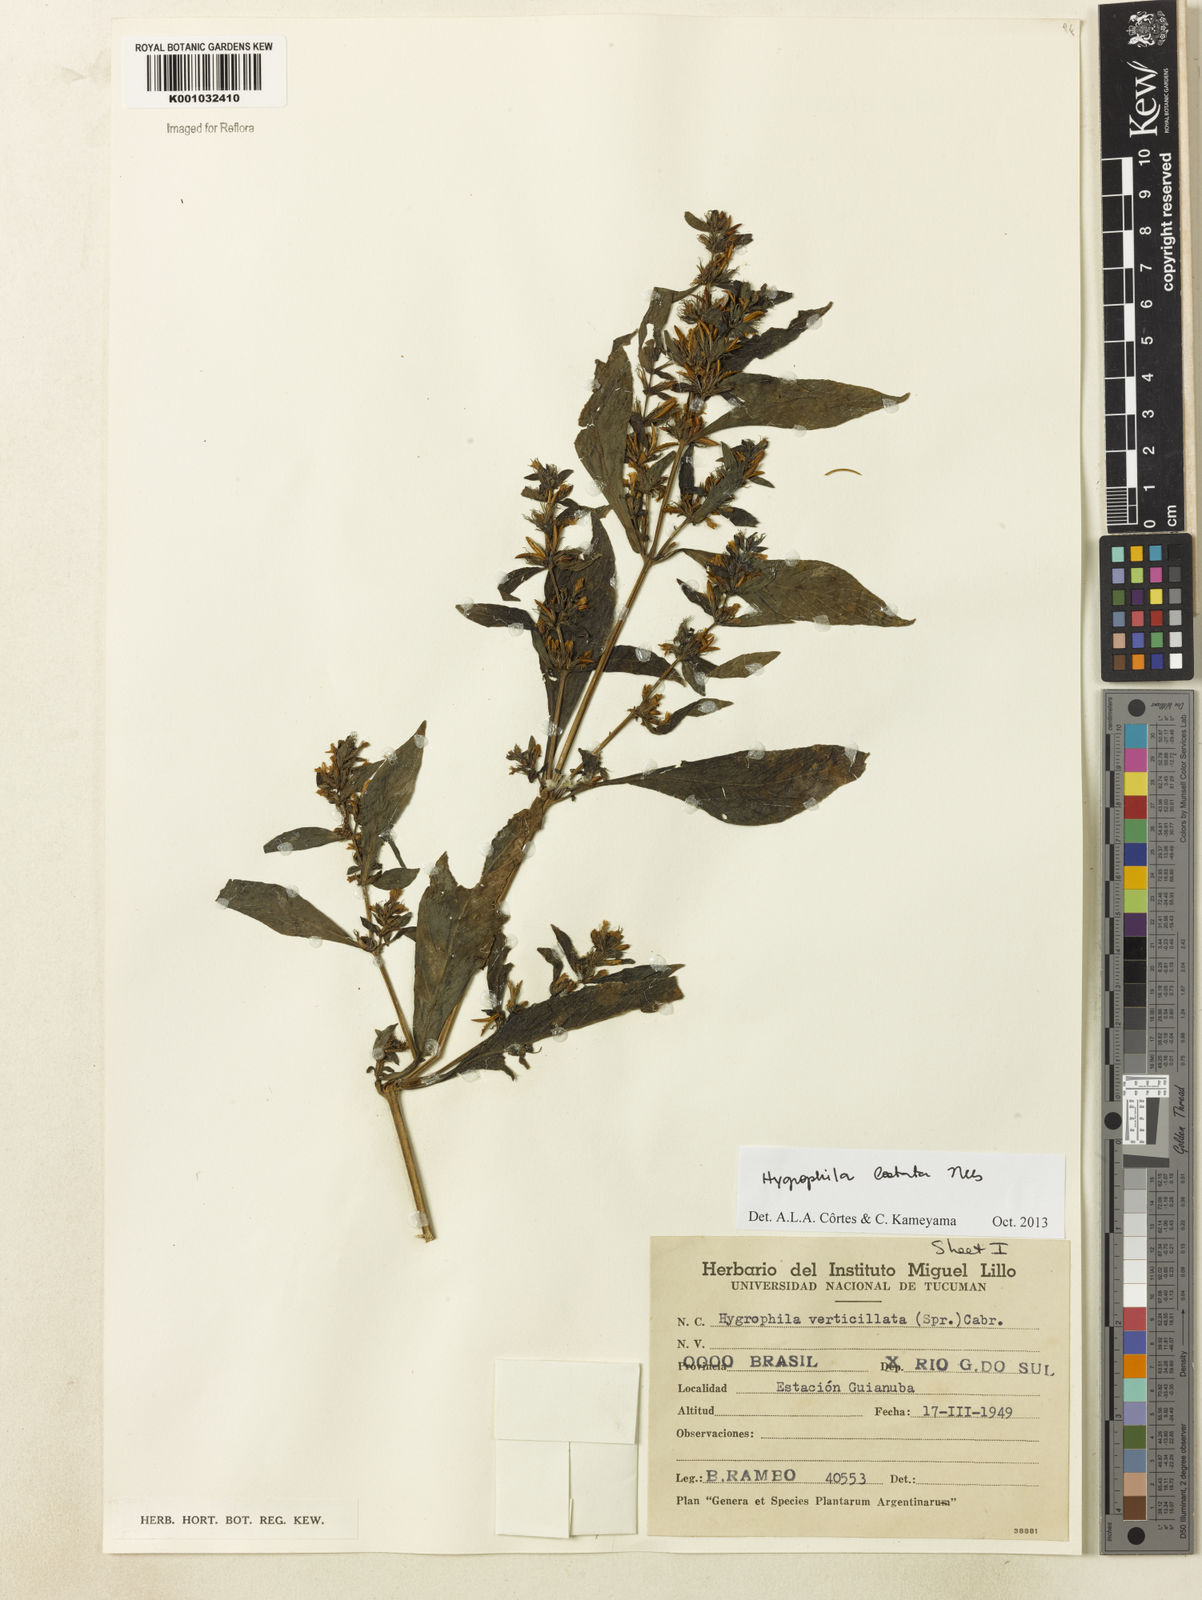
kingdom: Plantae
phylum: Tracheophyta
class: Magnoliopsida
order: Lamiales
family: Acanthaceae
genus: Hygrophila
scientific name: Hygrophila costata
